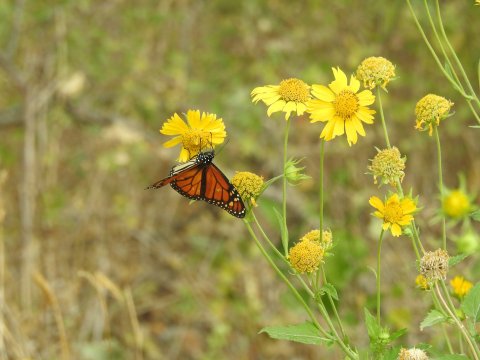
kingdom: Animalia
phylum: Arthropoda
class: Insecta
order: Lepidoptera
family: Nymphalidae
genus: Danaus
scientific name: Danaus plexippus
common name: Monarch
